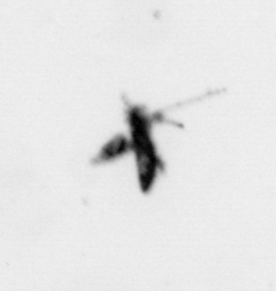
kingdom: Animalia
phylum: Arthropoda
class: Copepoda
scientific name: Copepoda
